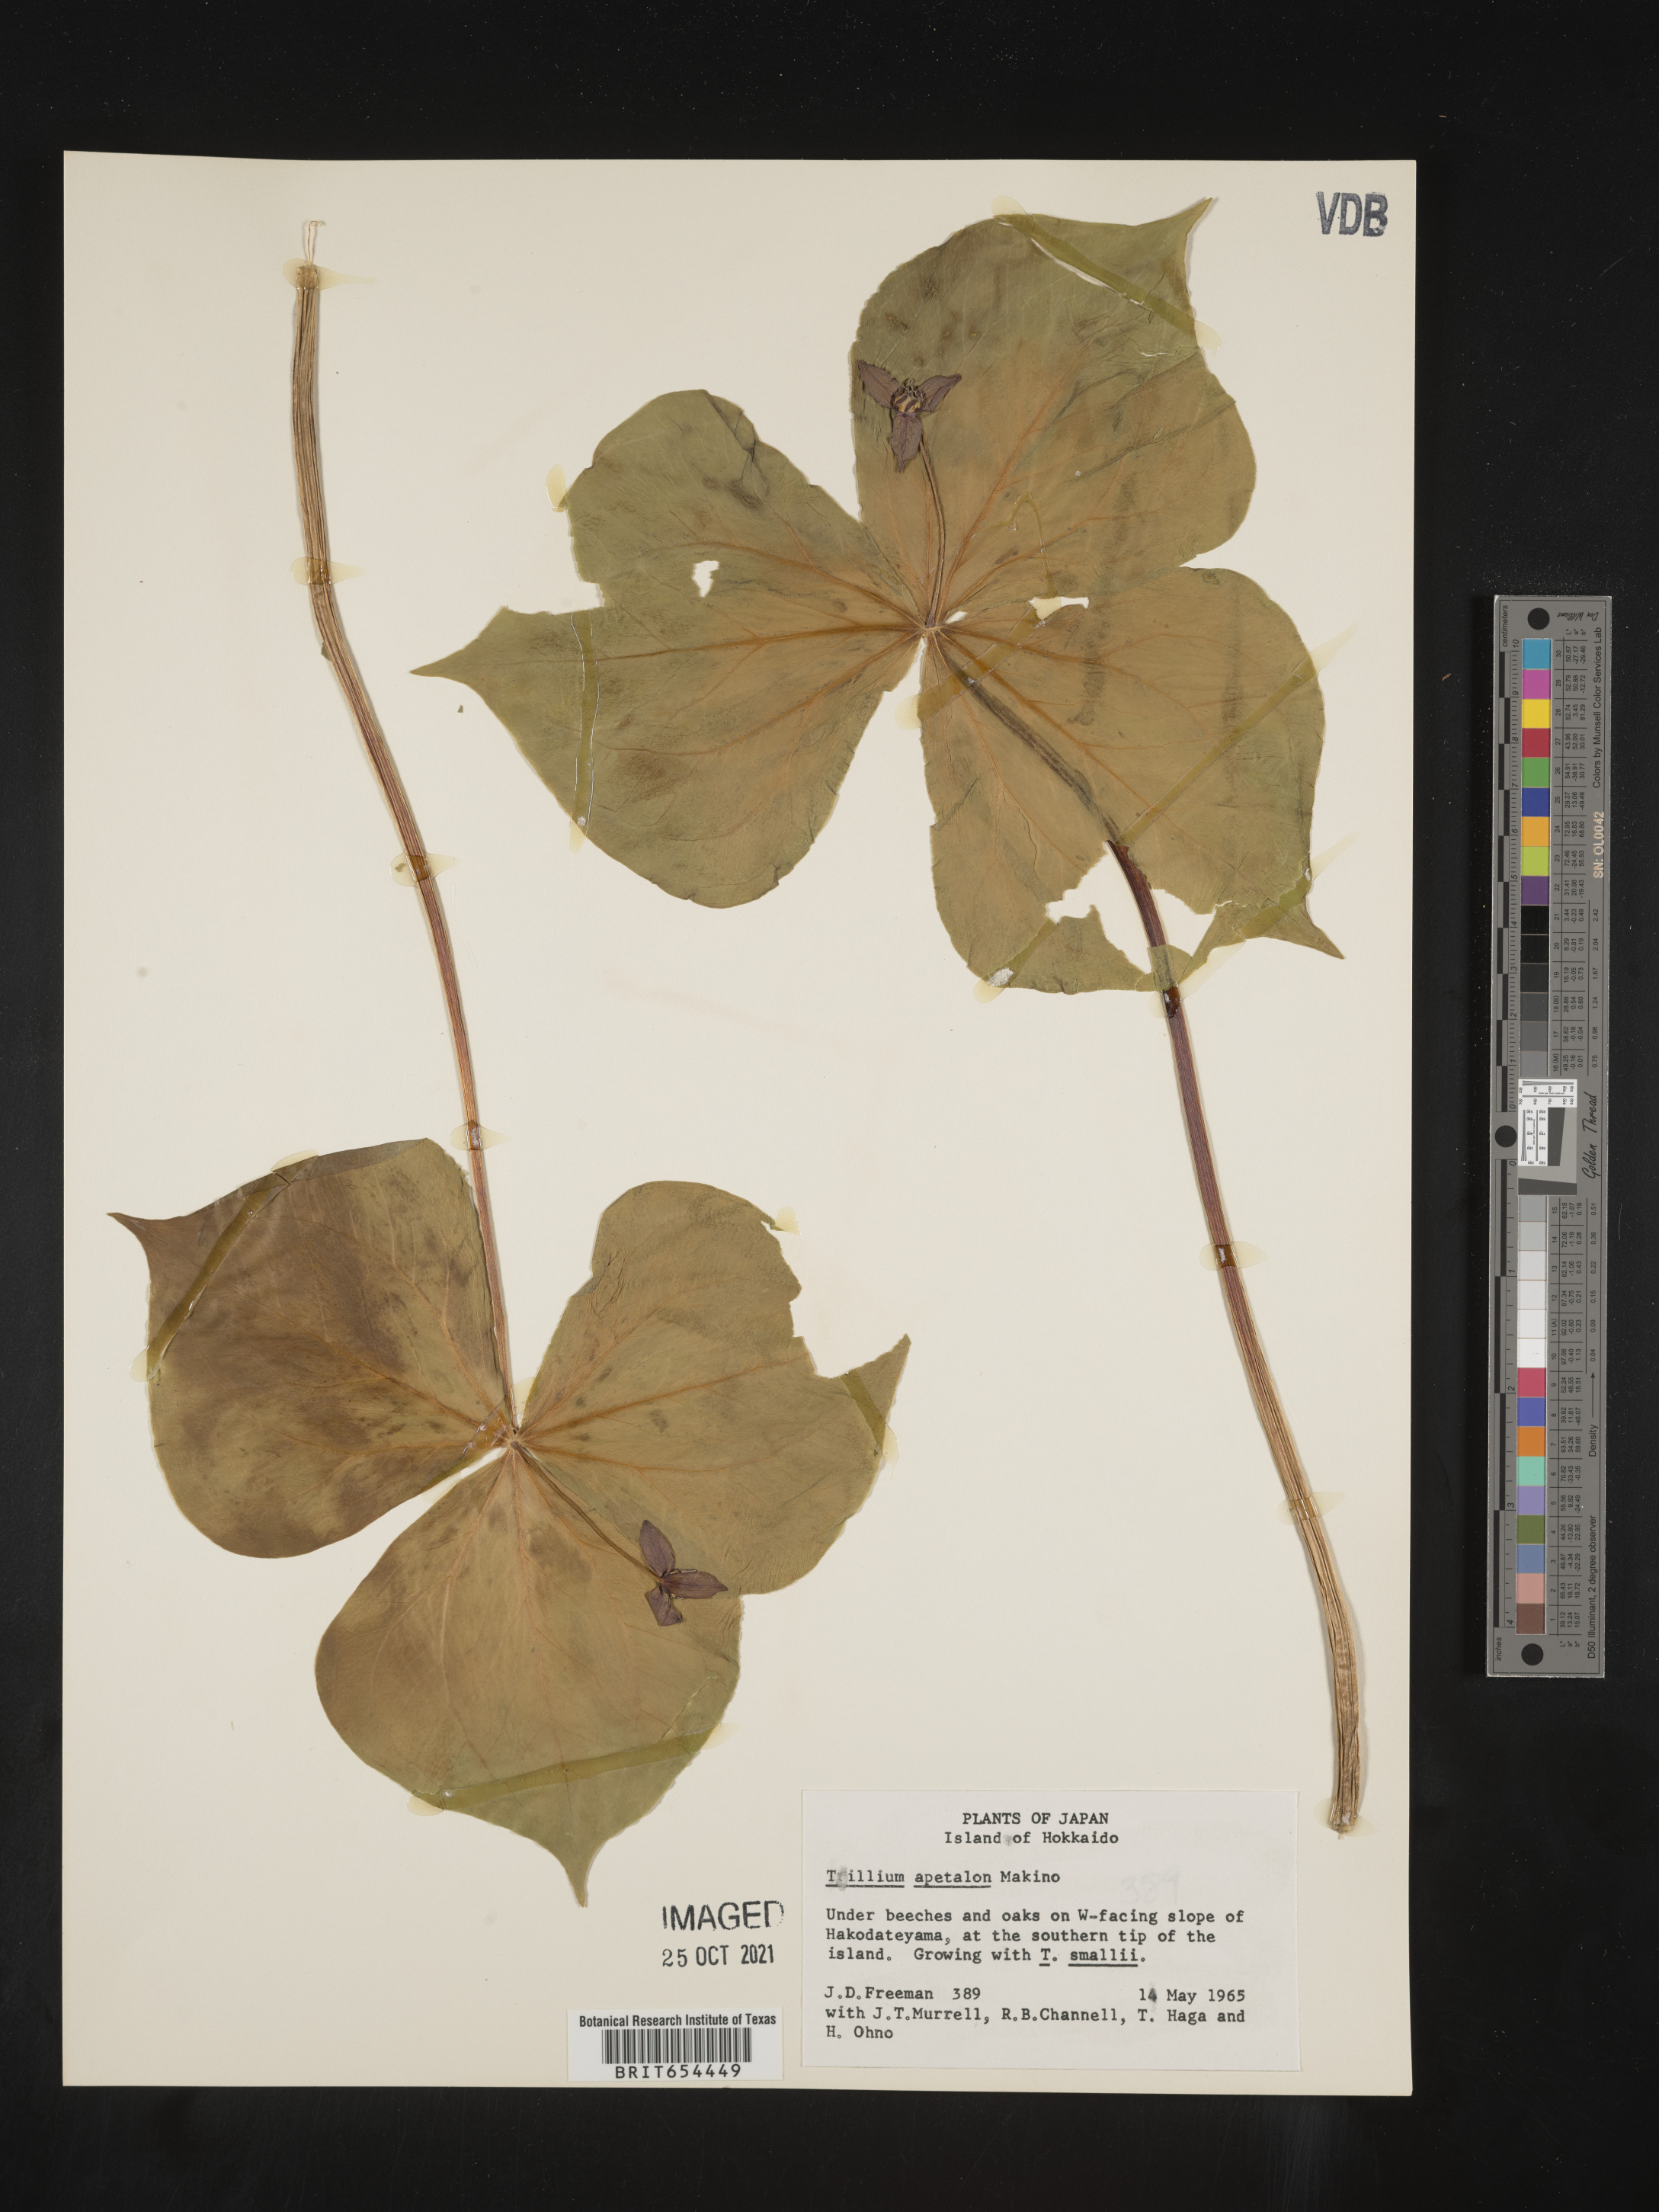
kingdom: Plantae
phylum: Tracheophyta
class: Liliopsida
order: Liliales
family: Melanthiaceae
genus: Trillium
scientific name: Trillium
